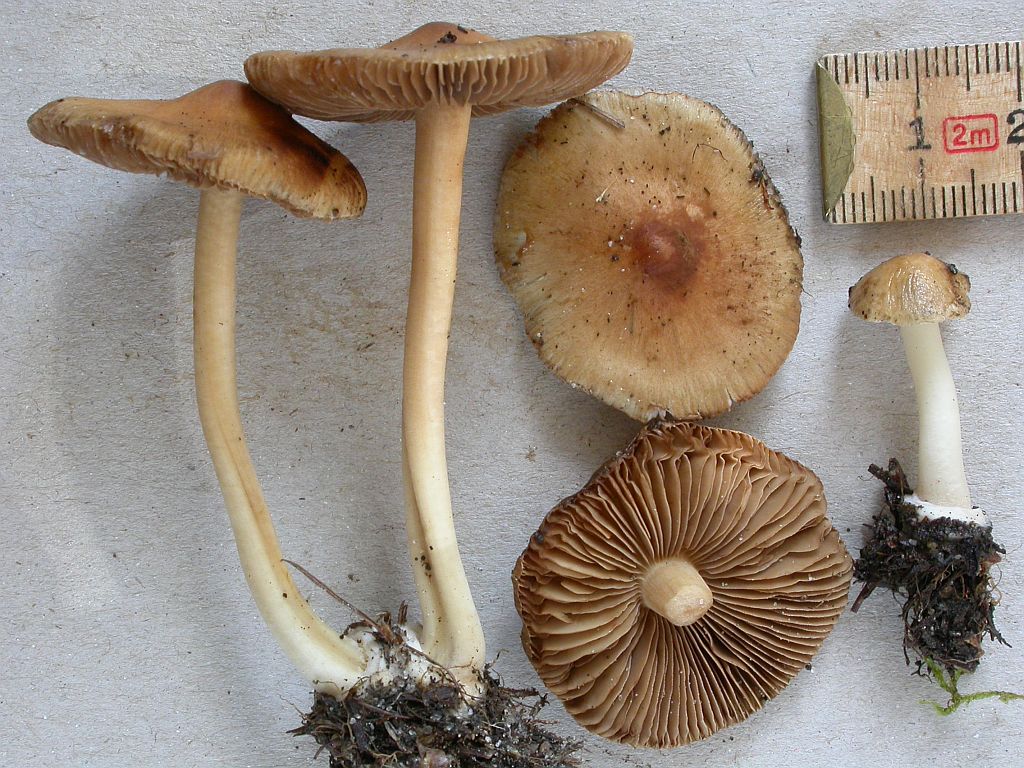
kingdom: Fungi
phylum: Basidiomycota
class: Agaricomycetes
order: Agaricales
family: Inocybaceae
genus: Inocybe
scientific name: Inocybe mixtilis
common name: randknoldet trævlhat
